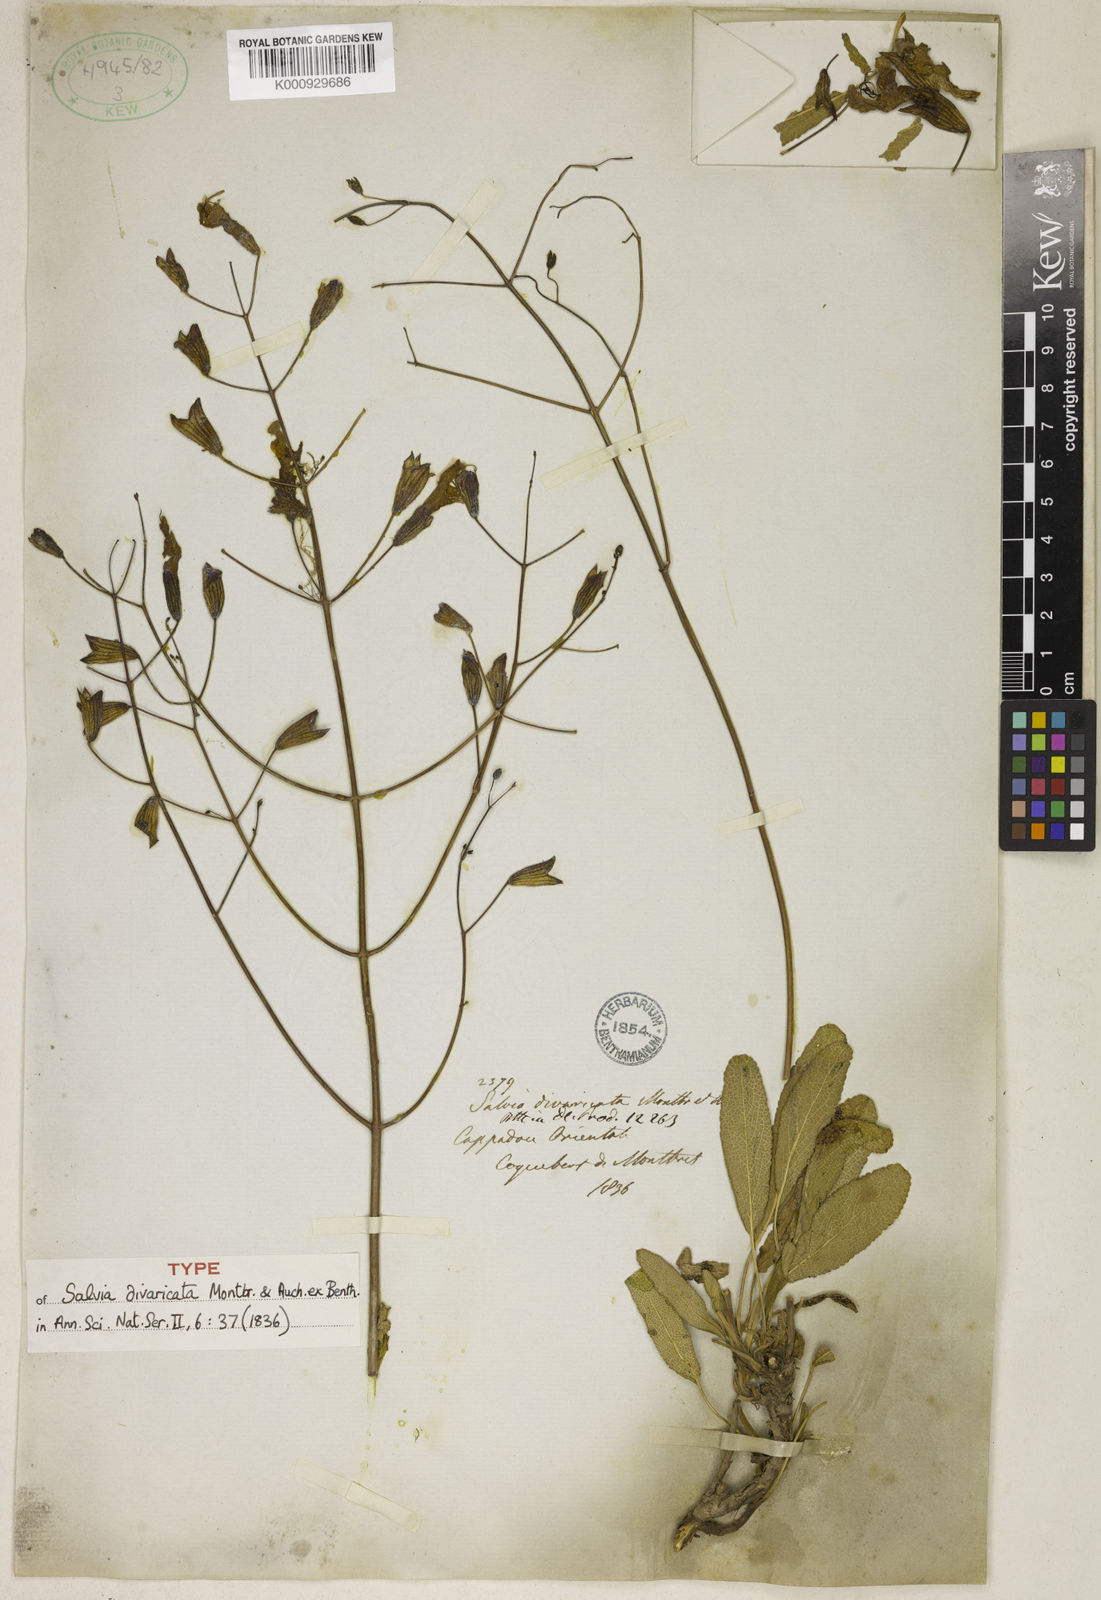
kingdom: Plantae
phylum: Tracheophyta
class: Magnoliopsida
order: Lamiales
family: Lamiaceae
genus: Salvia
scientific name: Salvia divaricata
